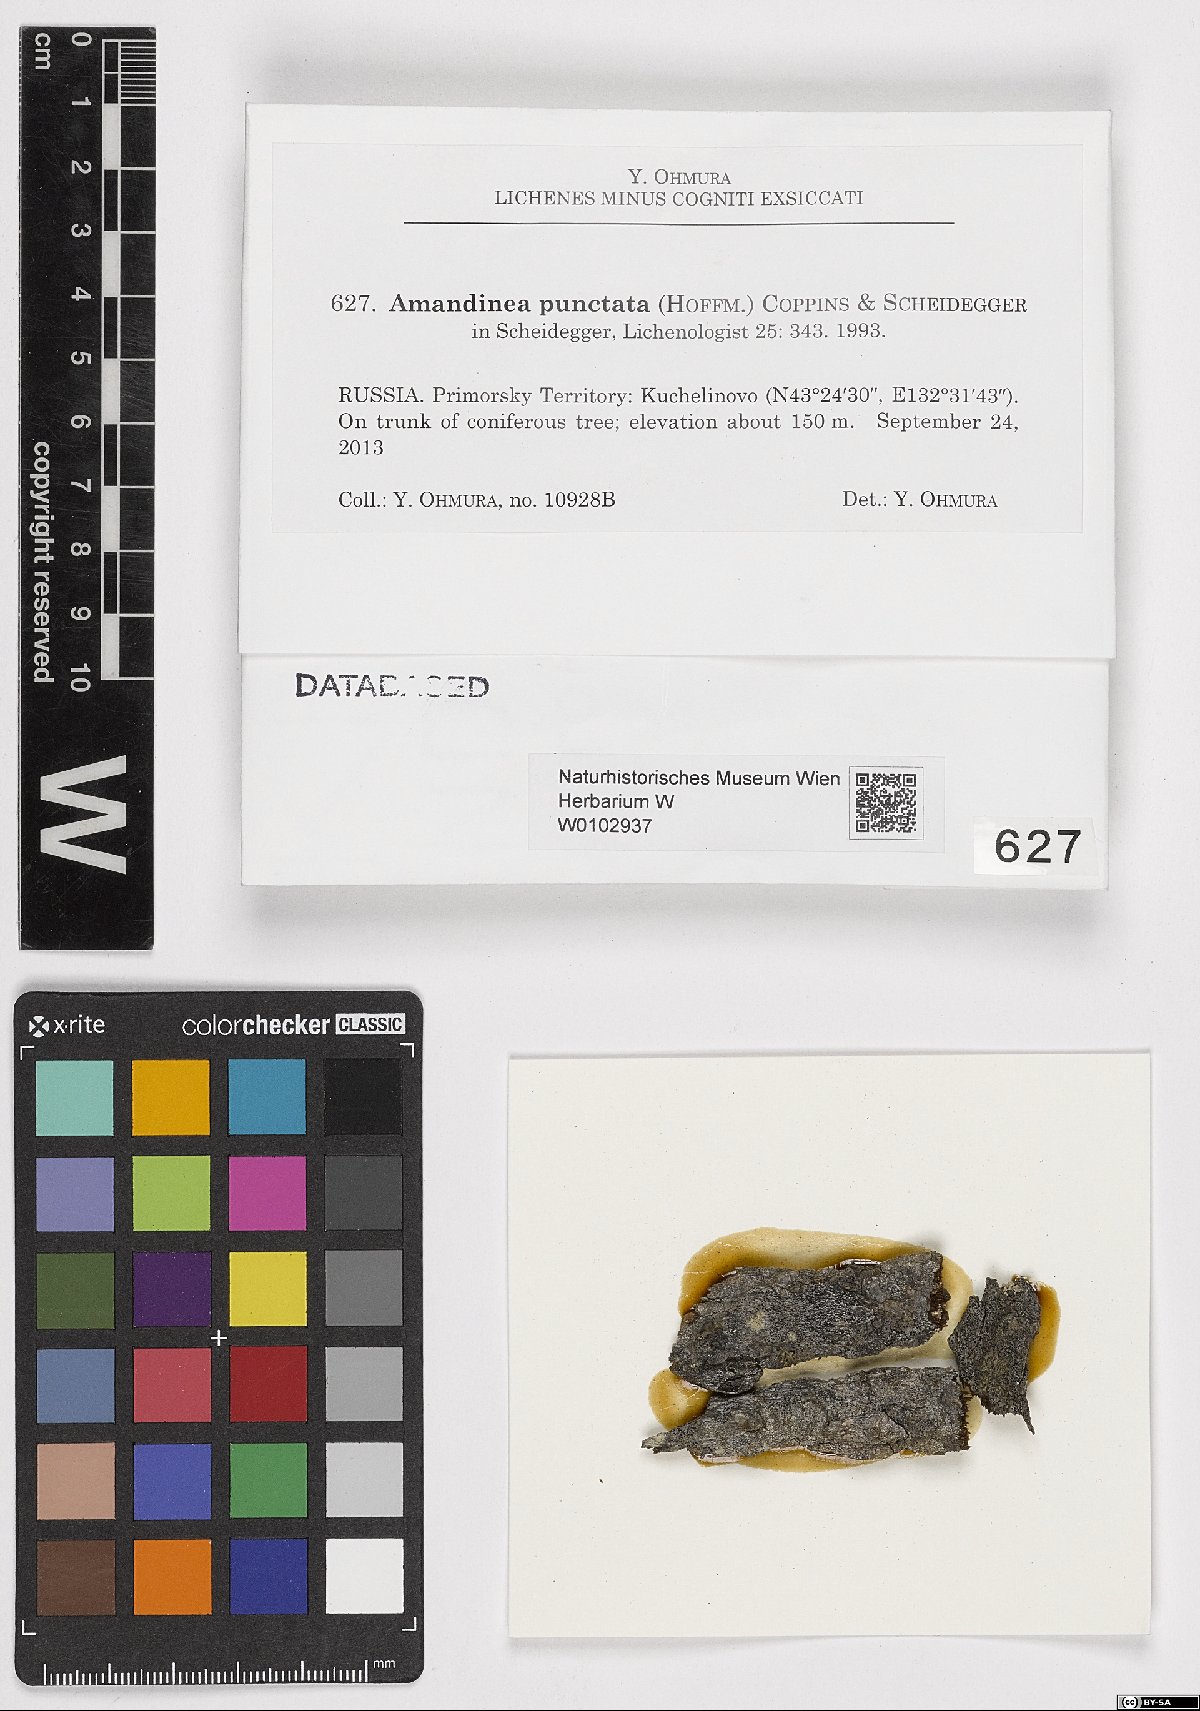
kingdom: Fungi
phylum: Ascomycota
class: Lecanoromycetes
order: Caliciales
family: Caliciaceae
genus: Amandinea
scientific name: Amandinea punctata
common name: Tiny button lichen
